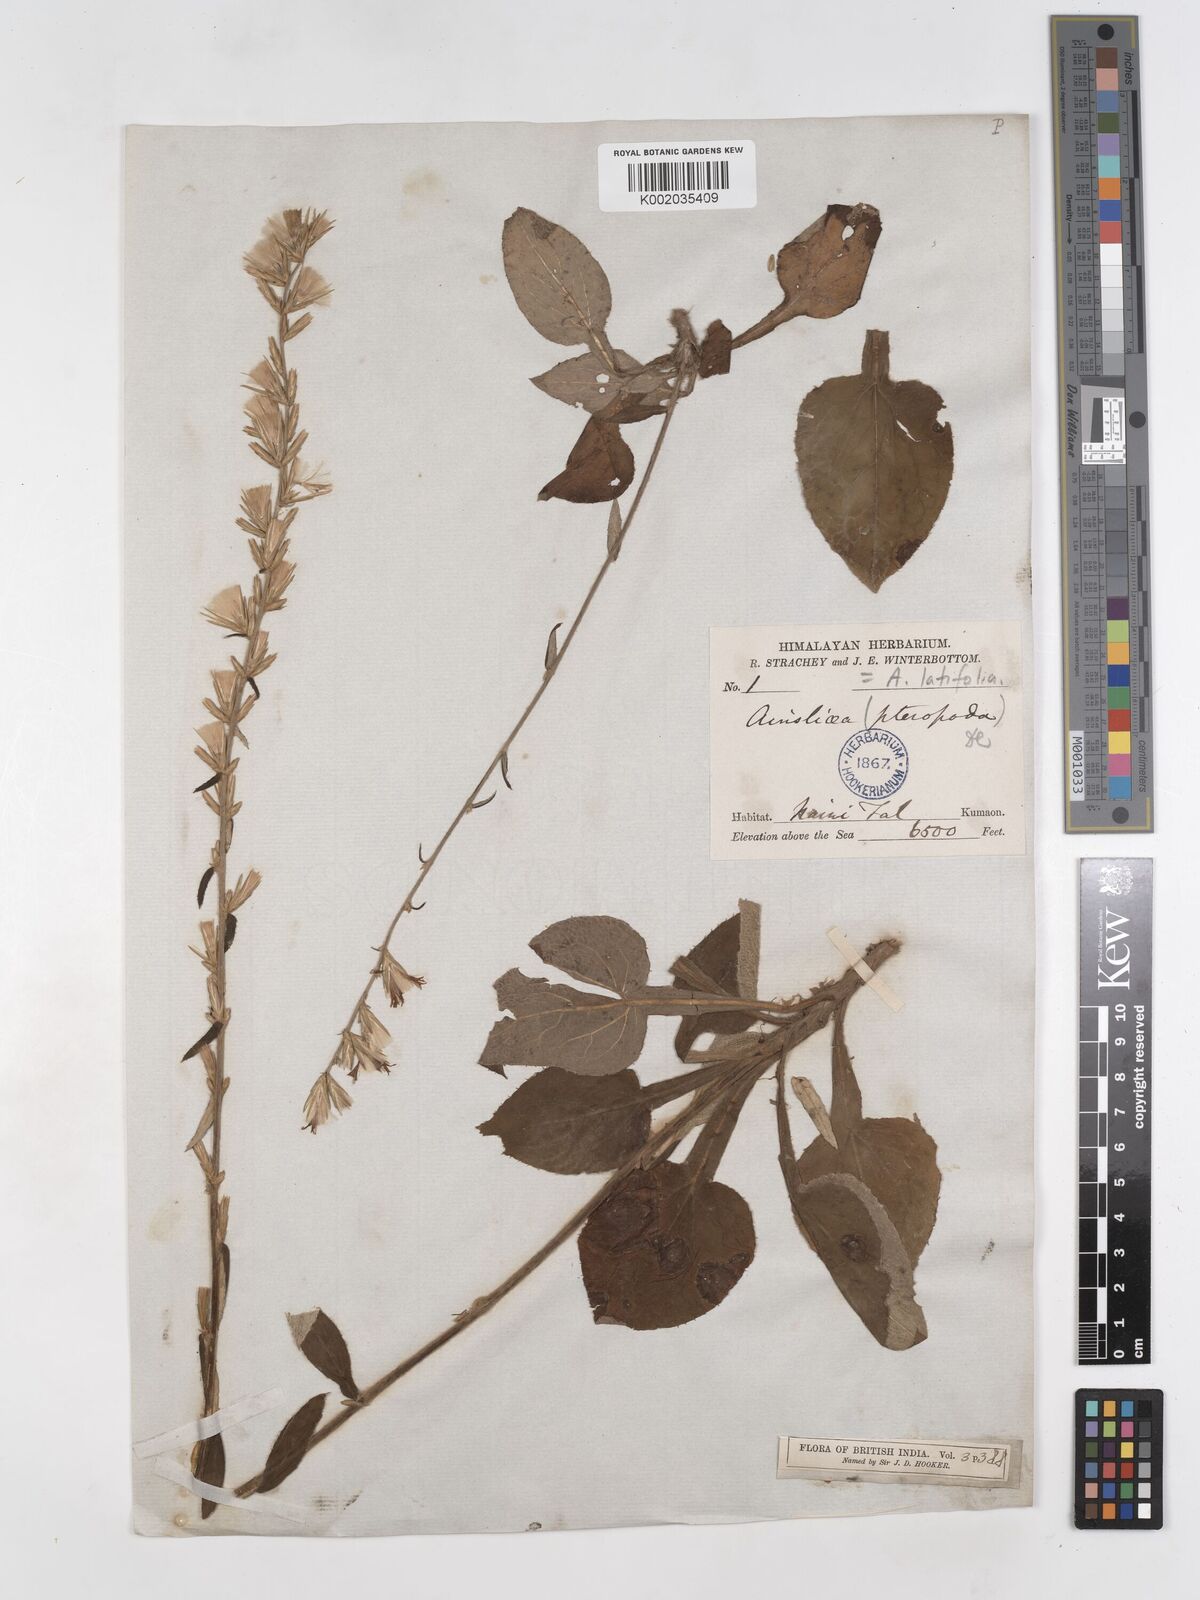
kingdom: Plantae
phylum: Tracheophyta
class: Magnoliopsida
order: Asterales
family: Asteraceae
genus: Ainsliaea
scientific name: Ainsliaea latifolia
